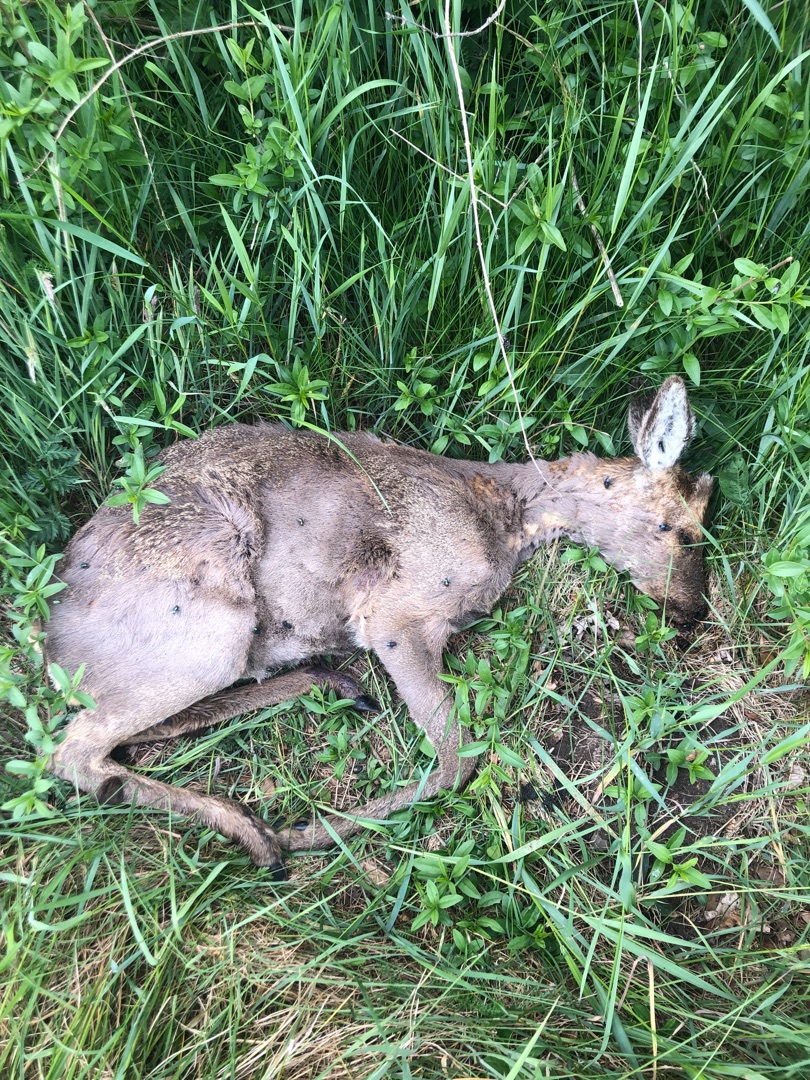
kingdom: Animalia
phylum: Chordata
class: Mammalia
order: Artiodactyla
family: Cervidae
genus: Capreolus
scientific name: Capreolus capreolus
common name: Rådyr
